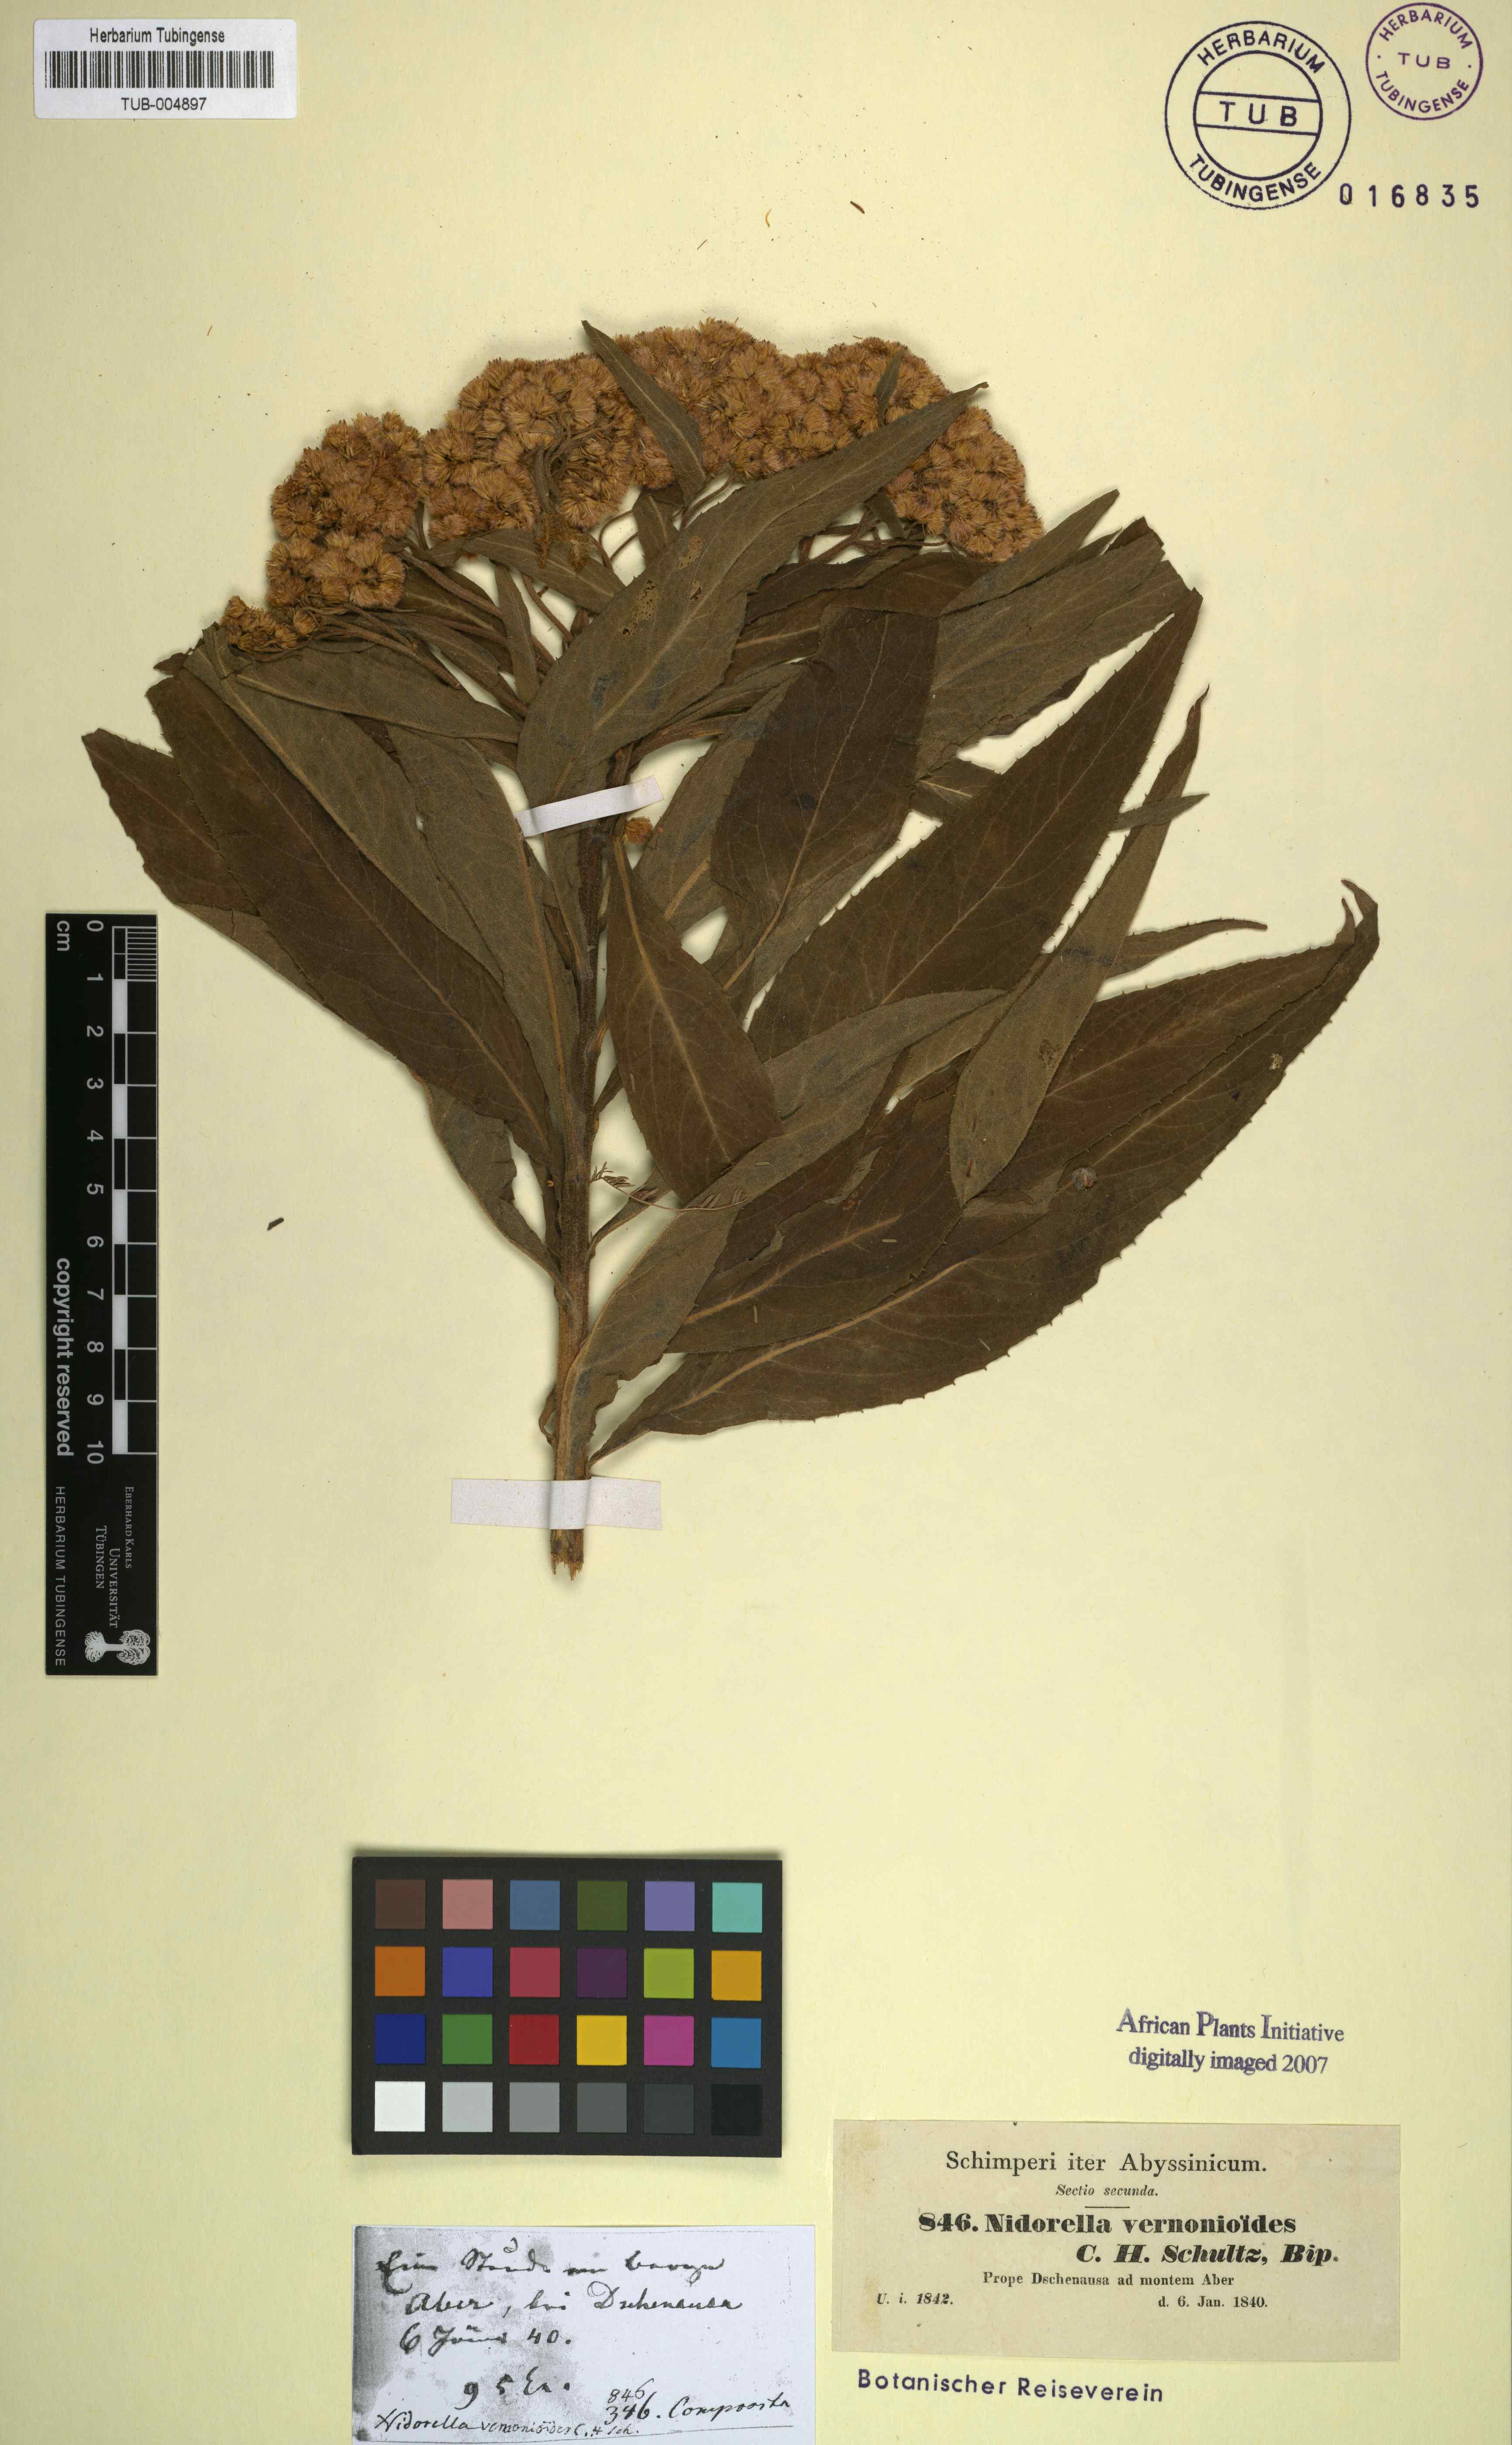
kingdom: Plantae
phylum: Tracheophyta
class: Magnoliopsida
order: Asterales
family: Asteraceae
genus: Nidorella
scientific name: Nidorella vernonioides
